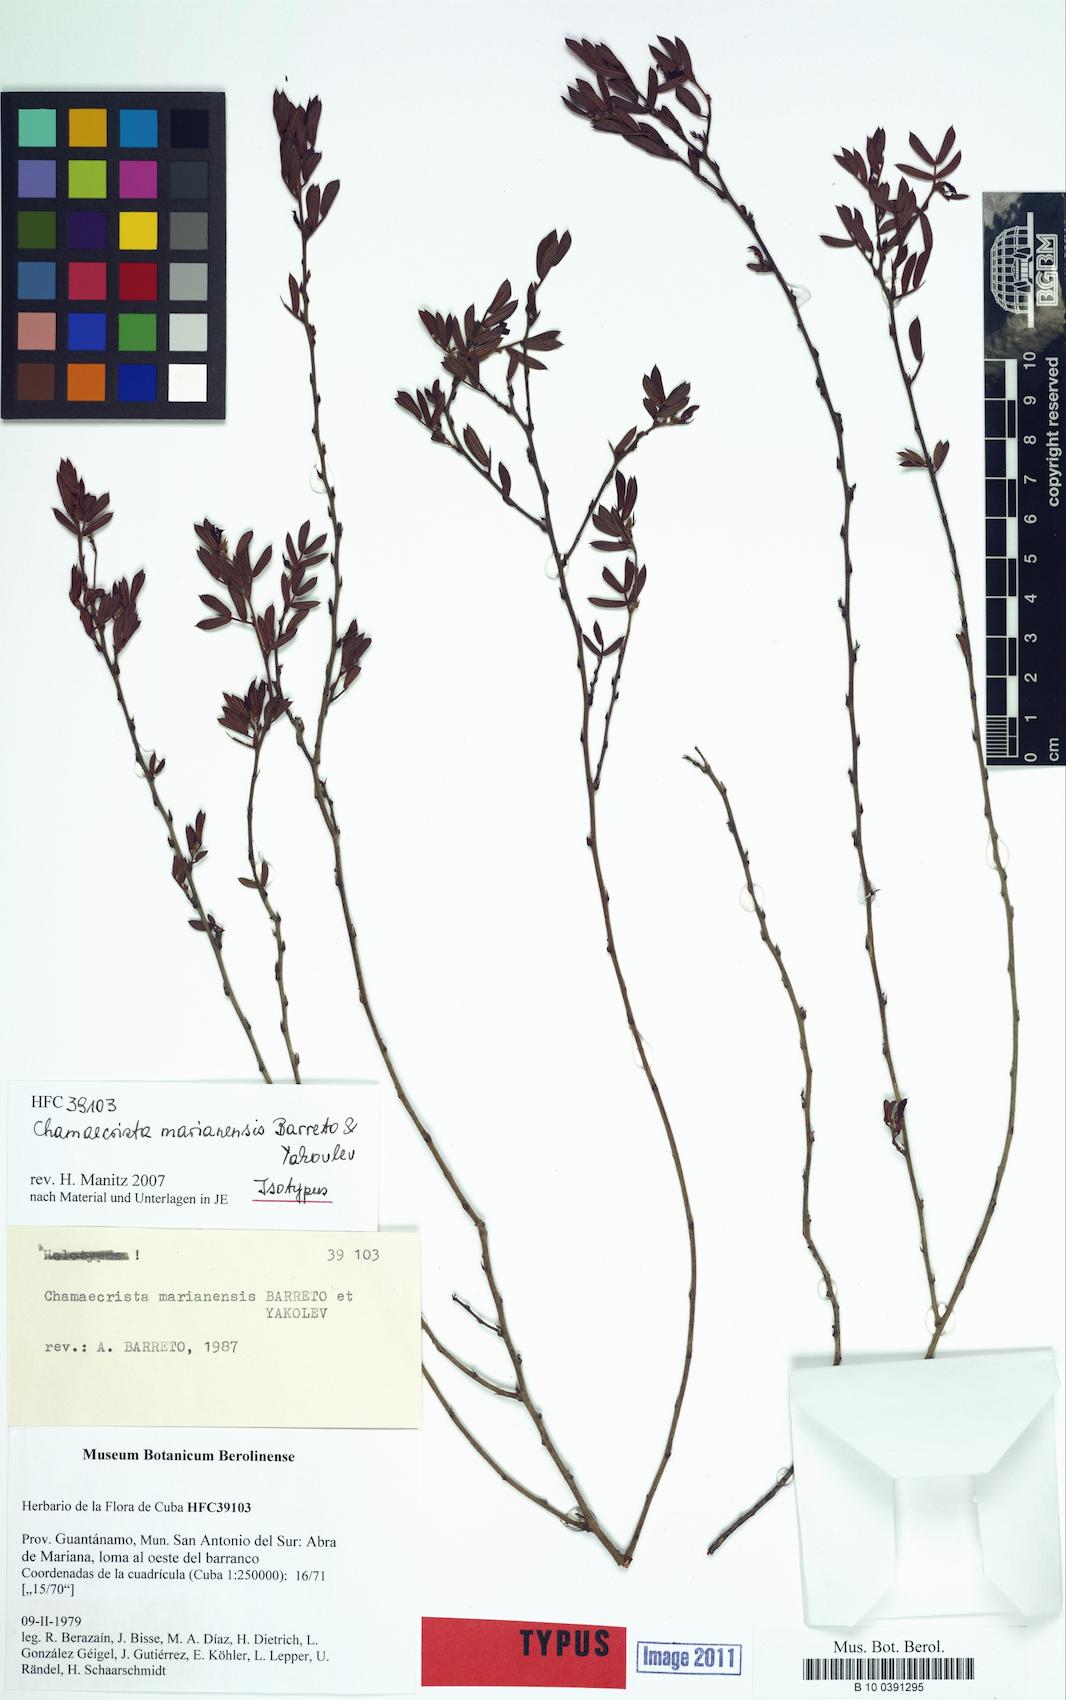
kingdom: Plantae
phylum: Tracheophyta
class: Magnoliopsida
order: Fabales
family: Fabaceae
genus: Chamaecrista
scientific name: Chamaecrista marianensis
